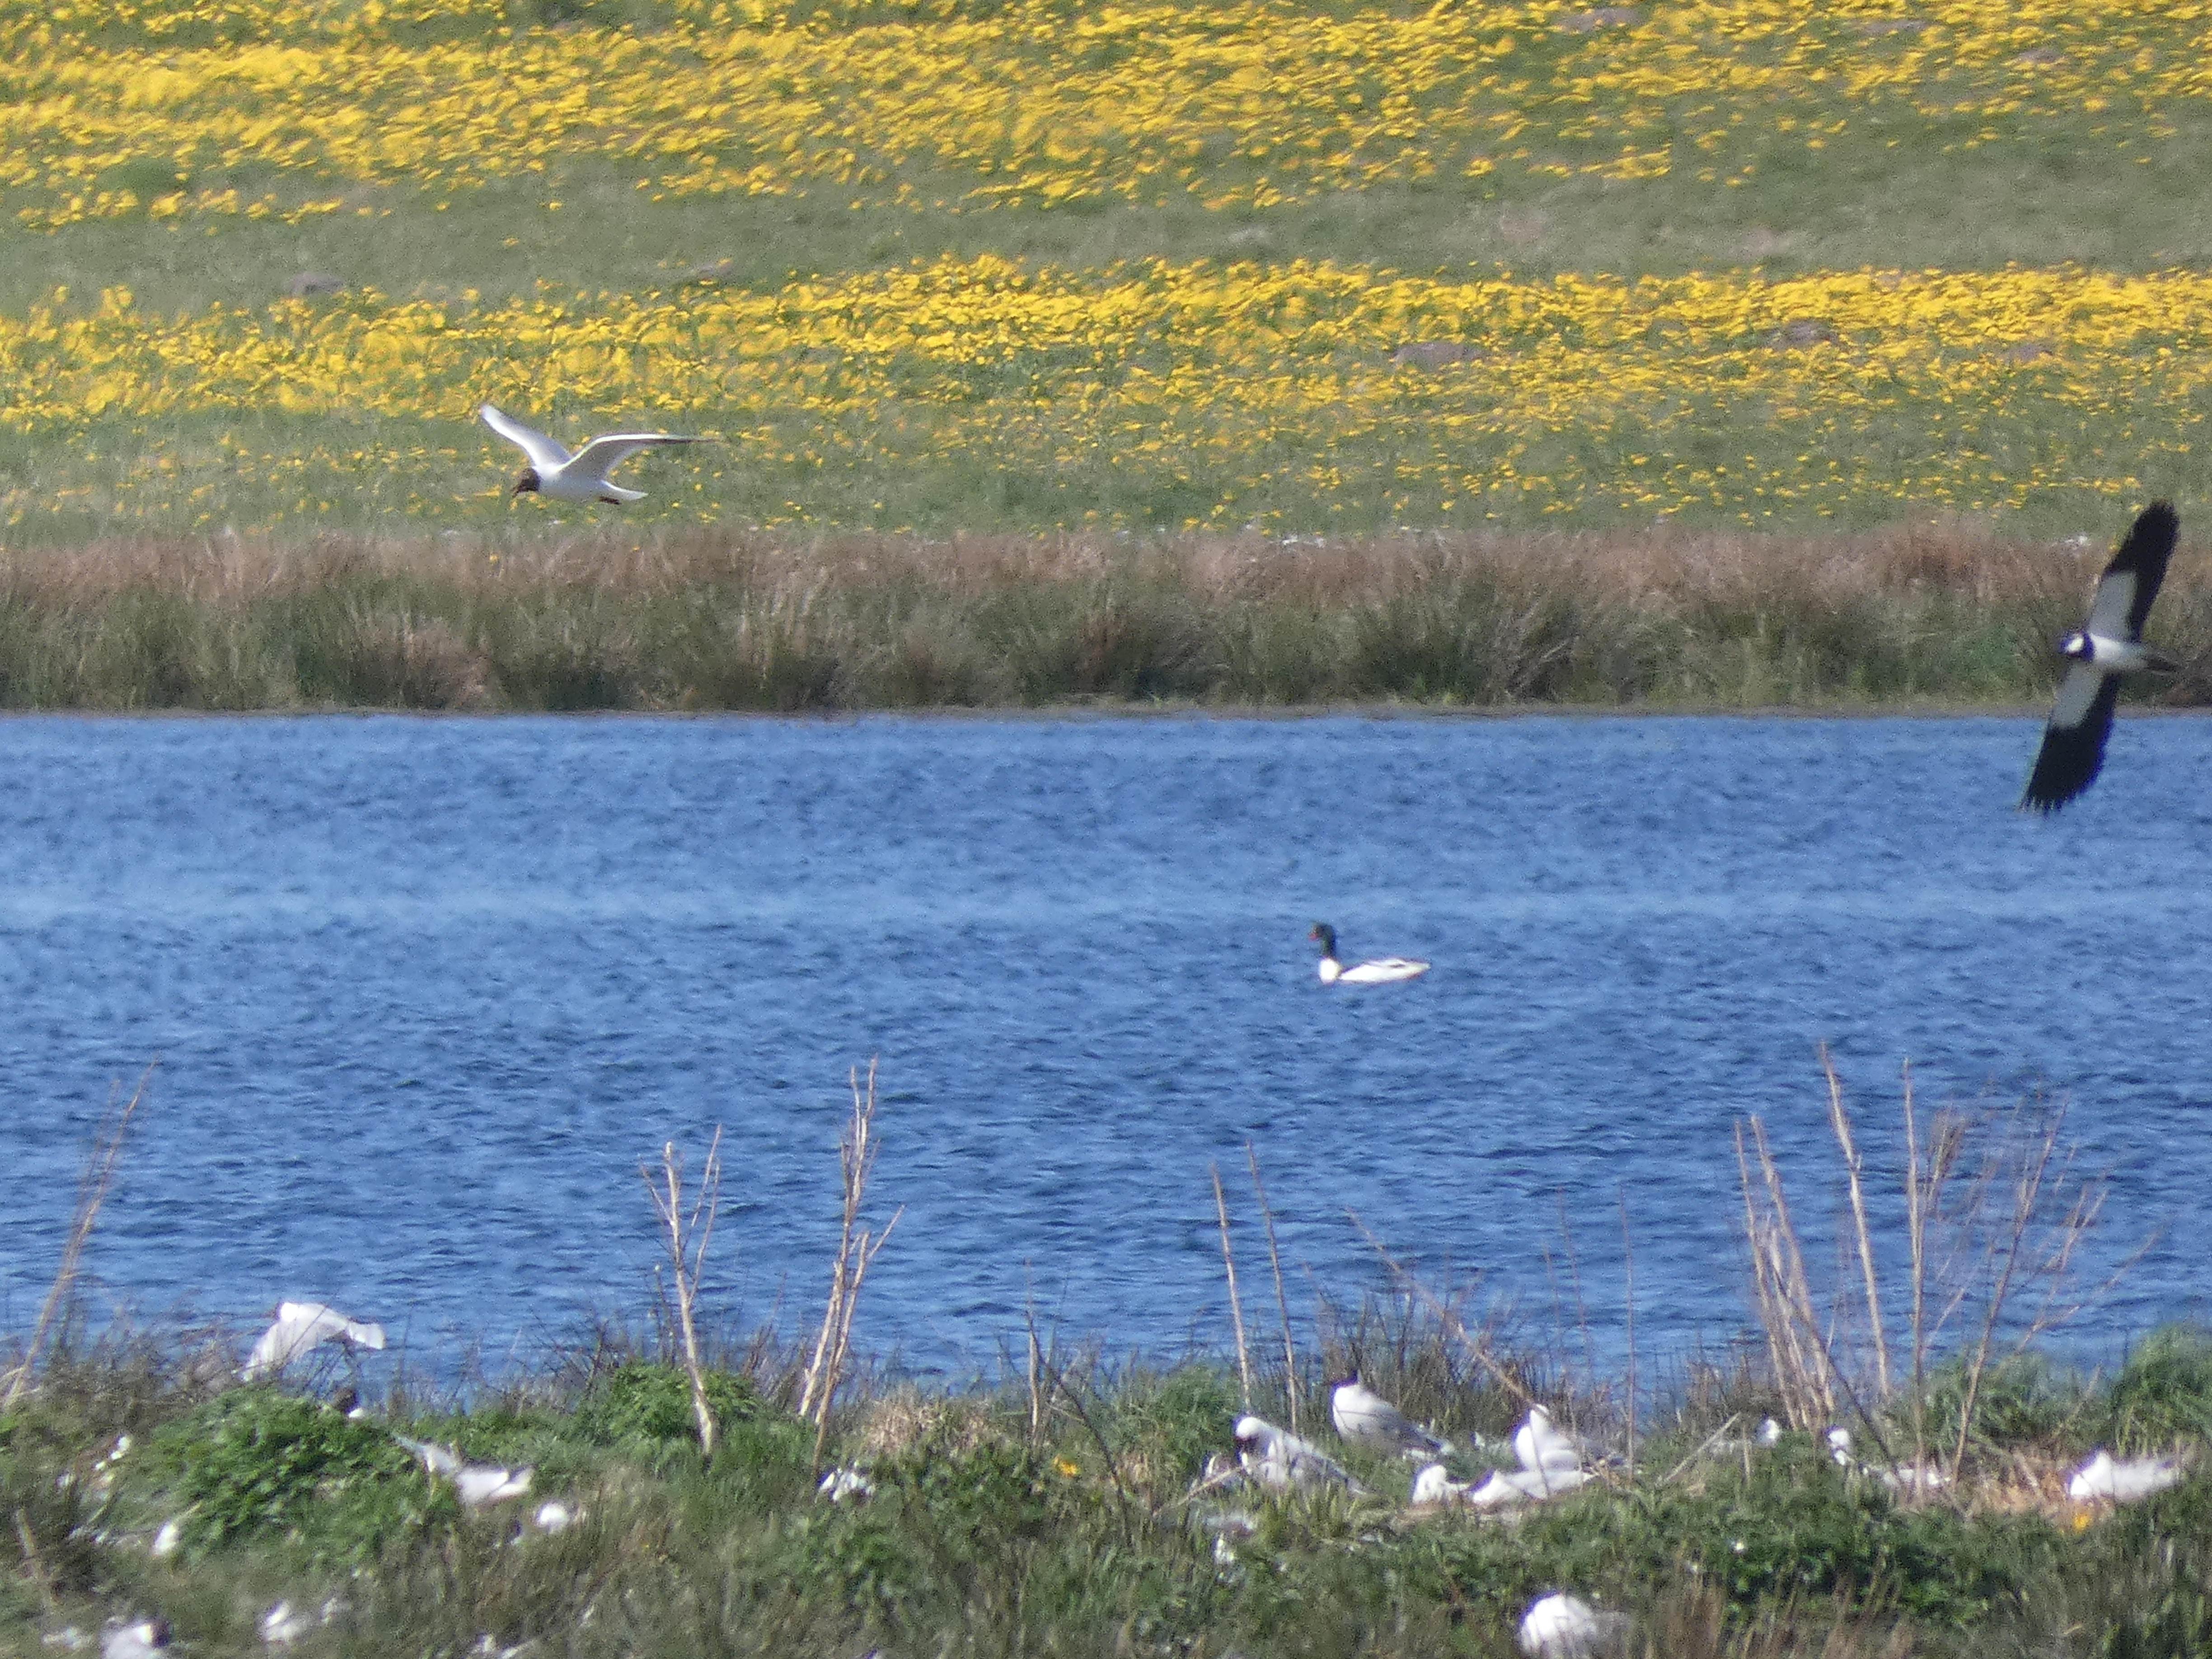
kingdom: Animalia
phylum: Chordata
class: Aves
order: Charadriiformes
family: Charadriidae
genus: Vanellus
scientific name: Vanellus vanellus
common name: Vibe
